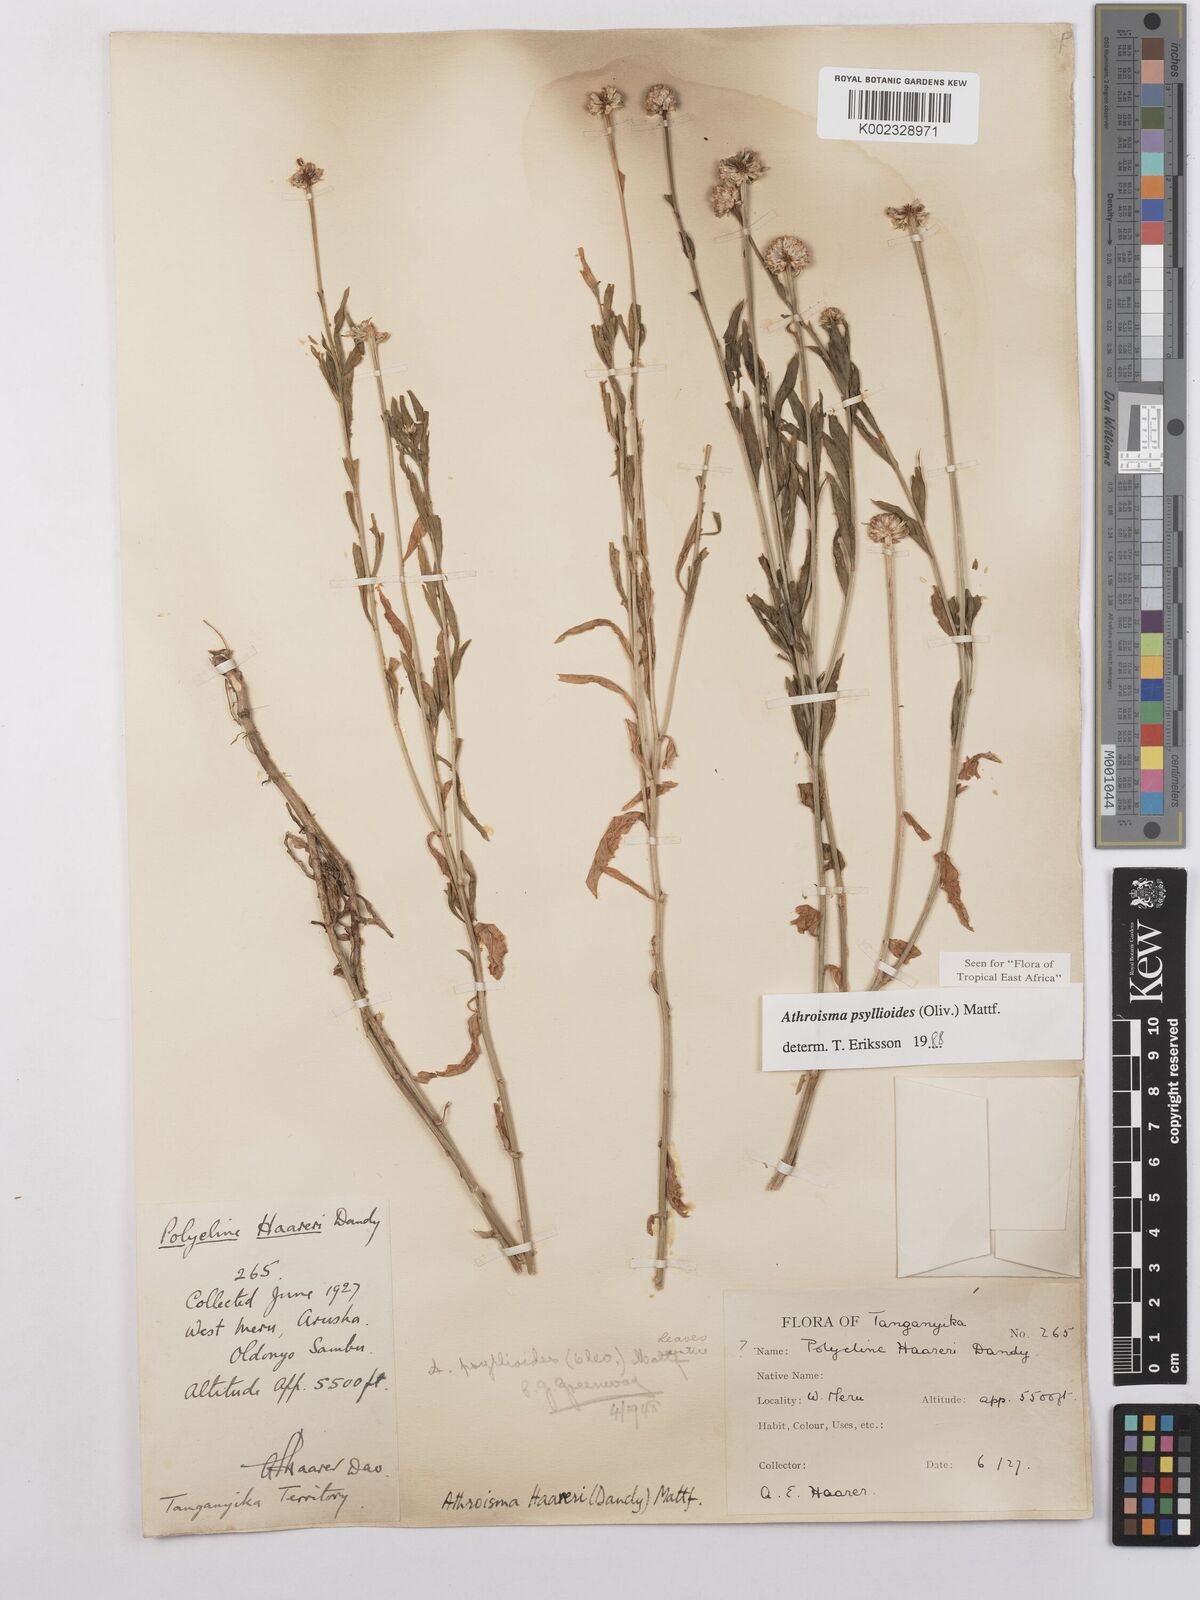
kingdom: Plantae
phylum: Tracheophyta
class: Magnoliopsida
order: Asterales
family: Asteraceae
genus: Athroisma
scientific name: Athroisma gracile
